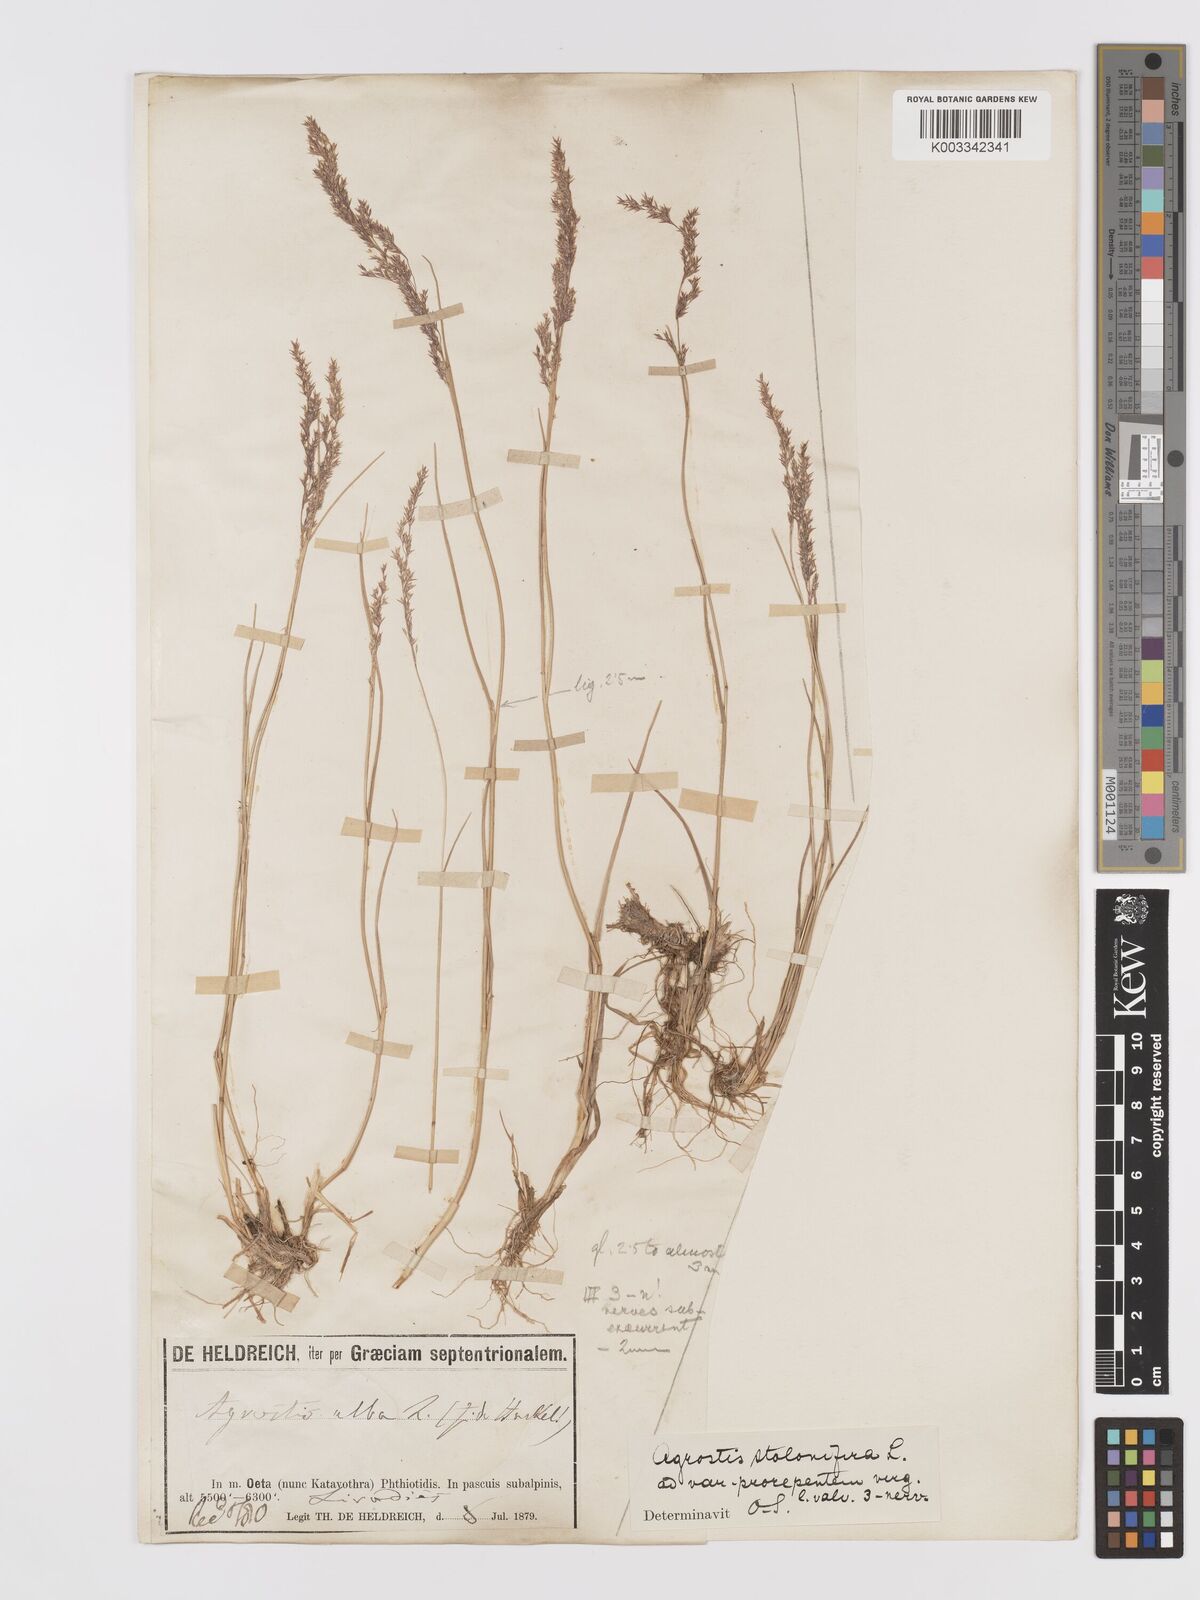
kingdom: Plantae
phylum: Tracheophyta
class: Liliopsida
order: Poales
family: Poaceae
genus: Agrostis
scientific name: Agrostis stolonifera
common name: Creeping bentgrass
